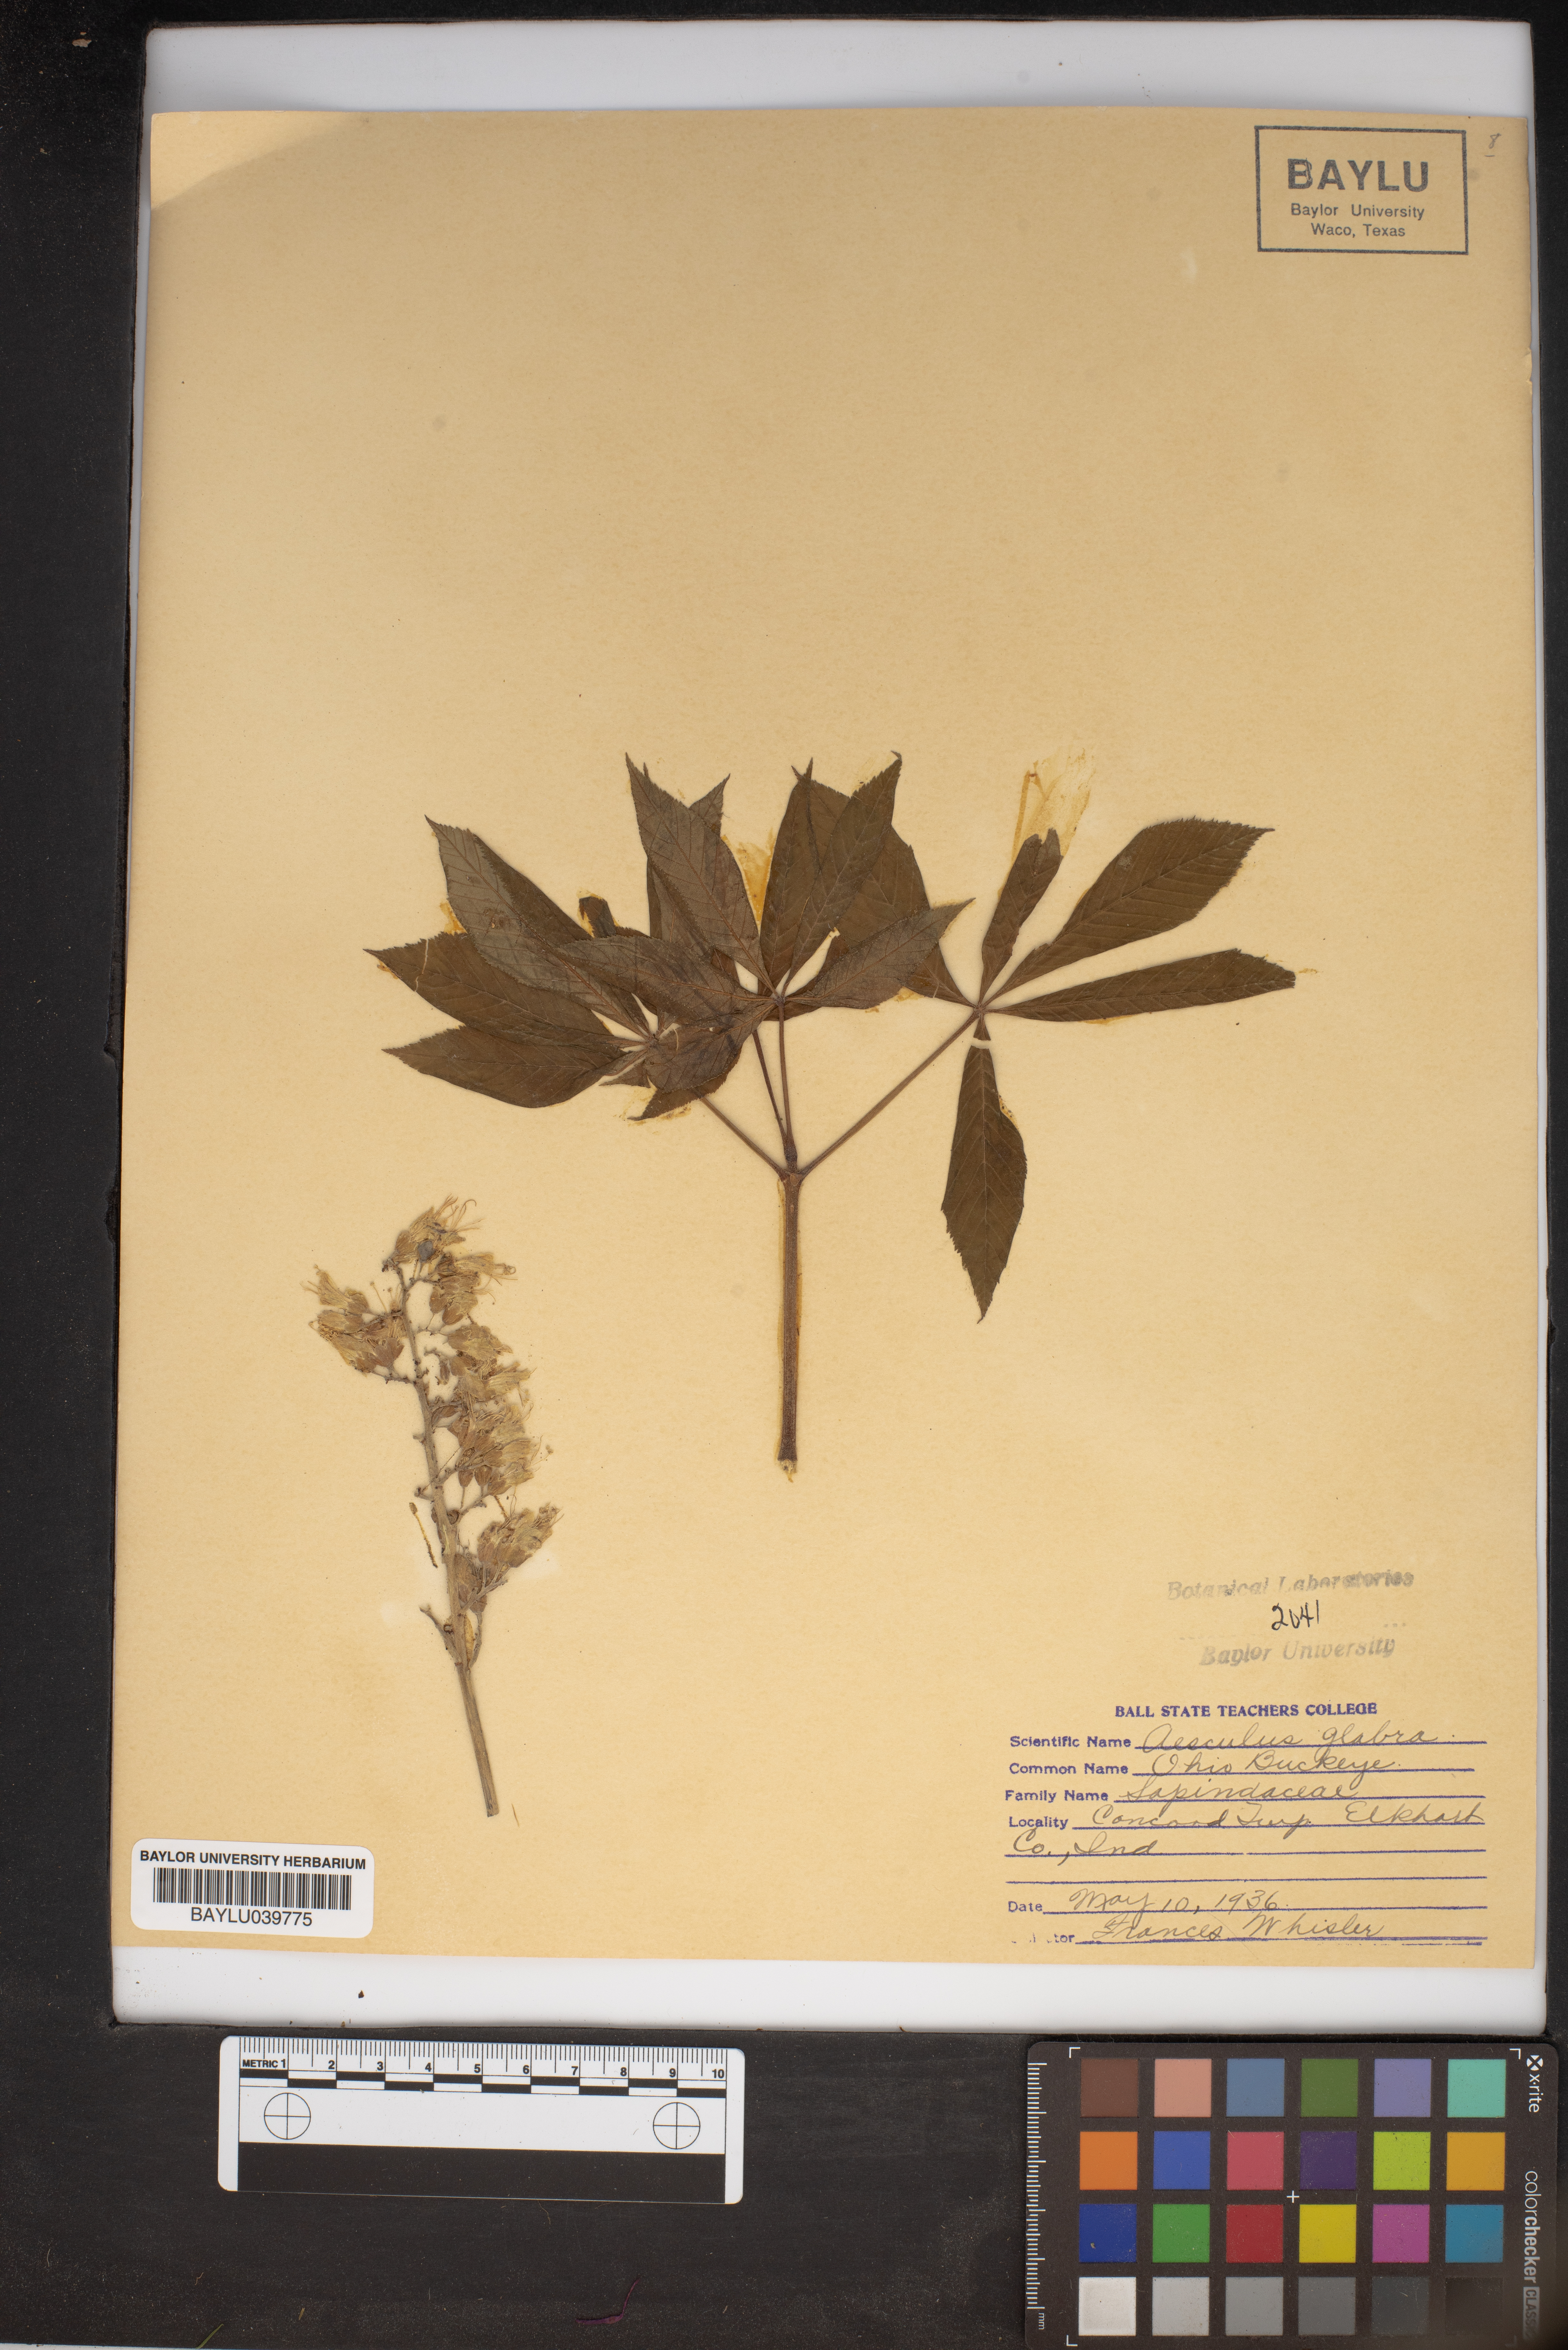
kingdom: Plantae
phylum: Tracheophyta
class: Magnoliopsida
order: Sapindales
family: Sapindaceae
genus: Aesculus
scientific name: Aesculus glabra
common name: Ohio buckeye
